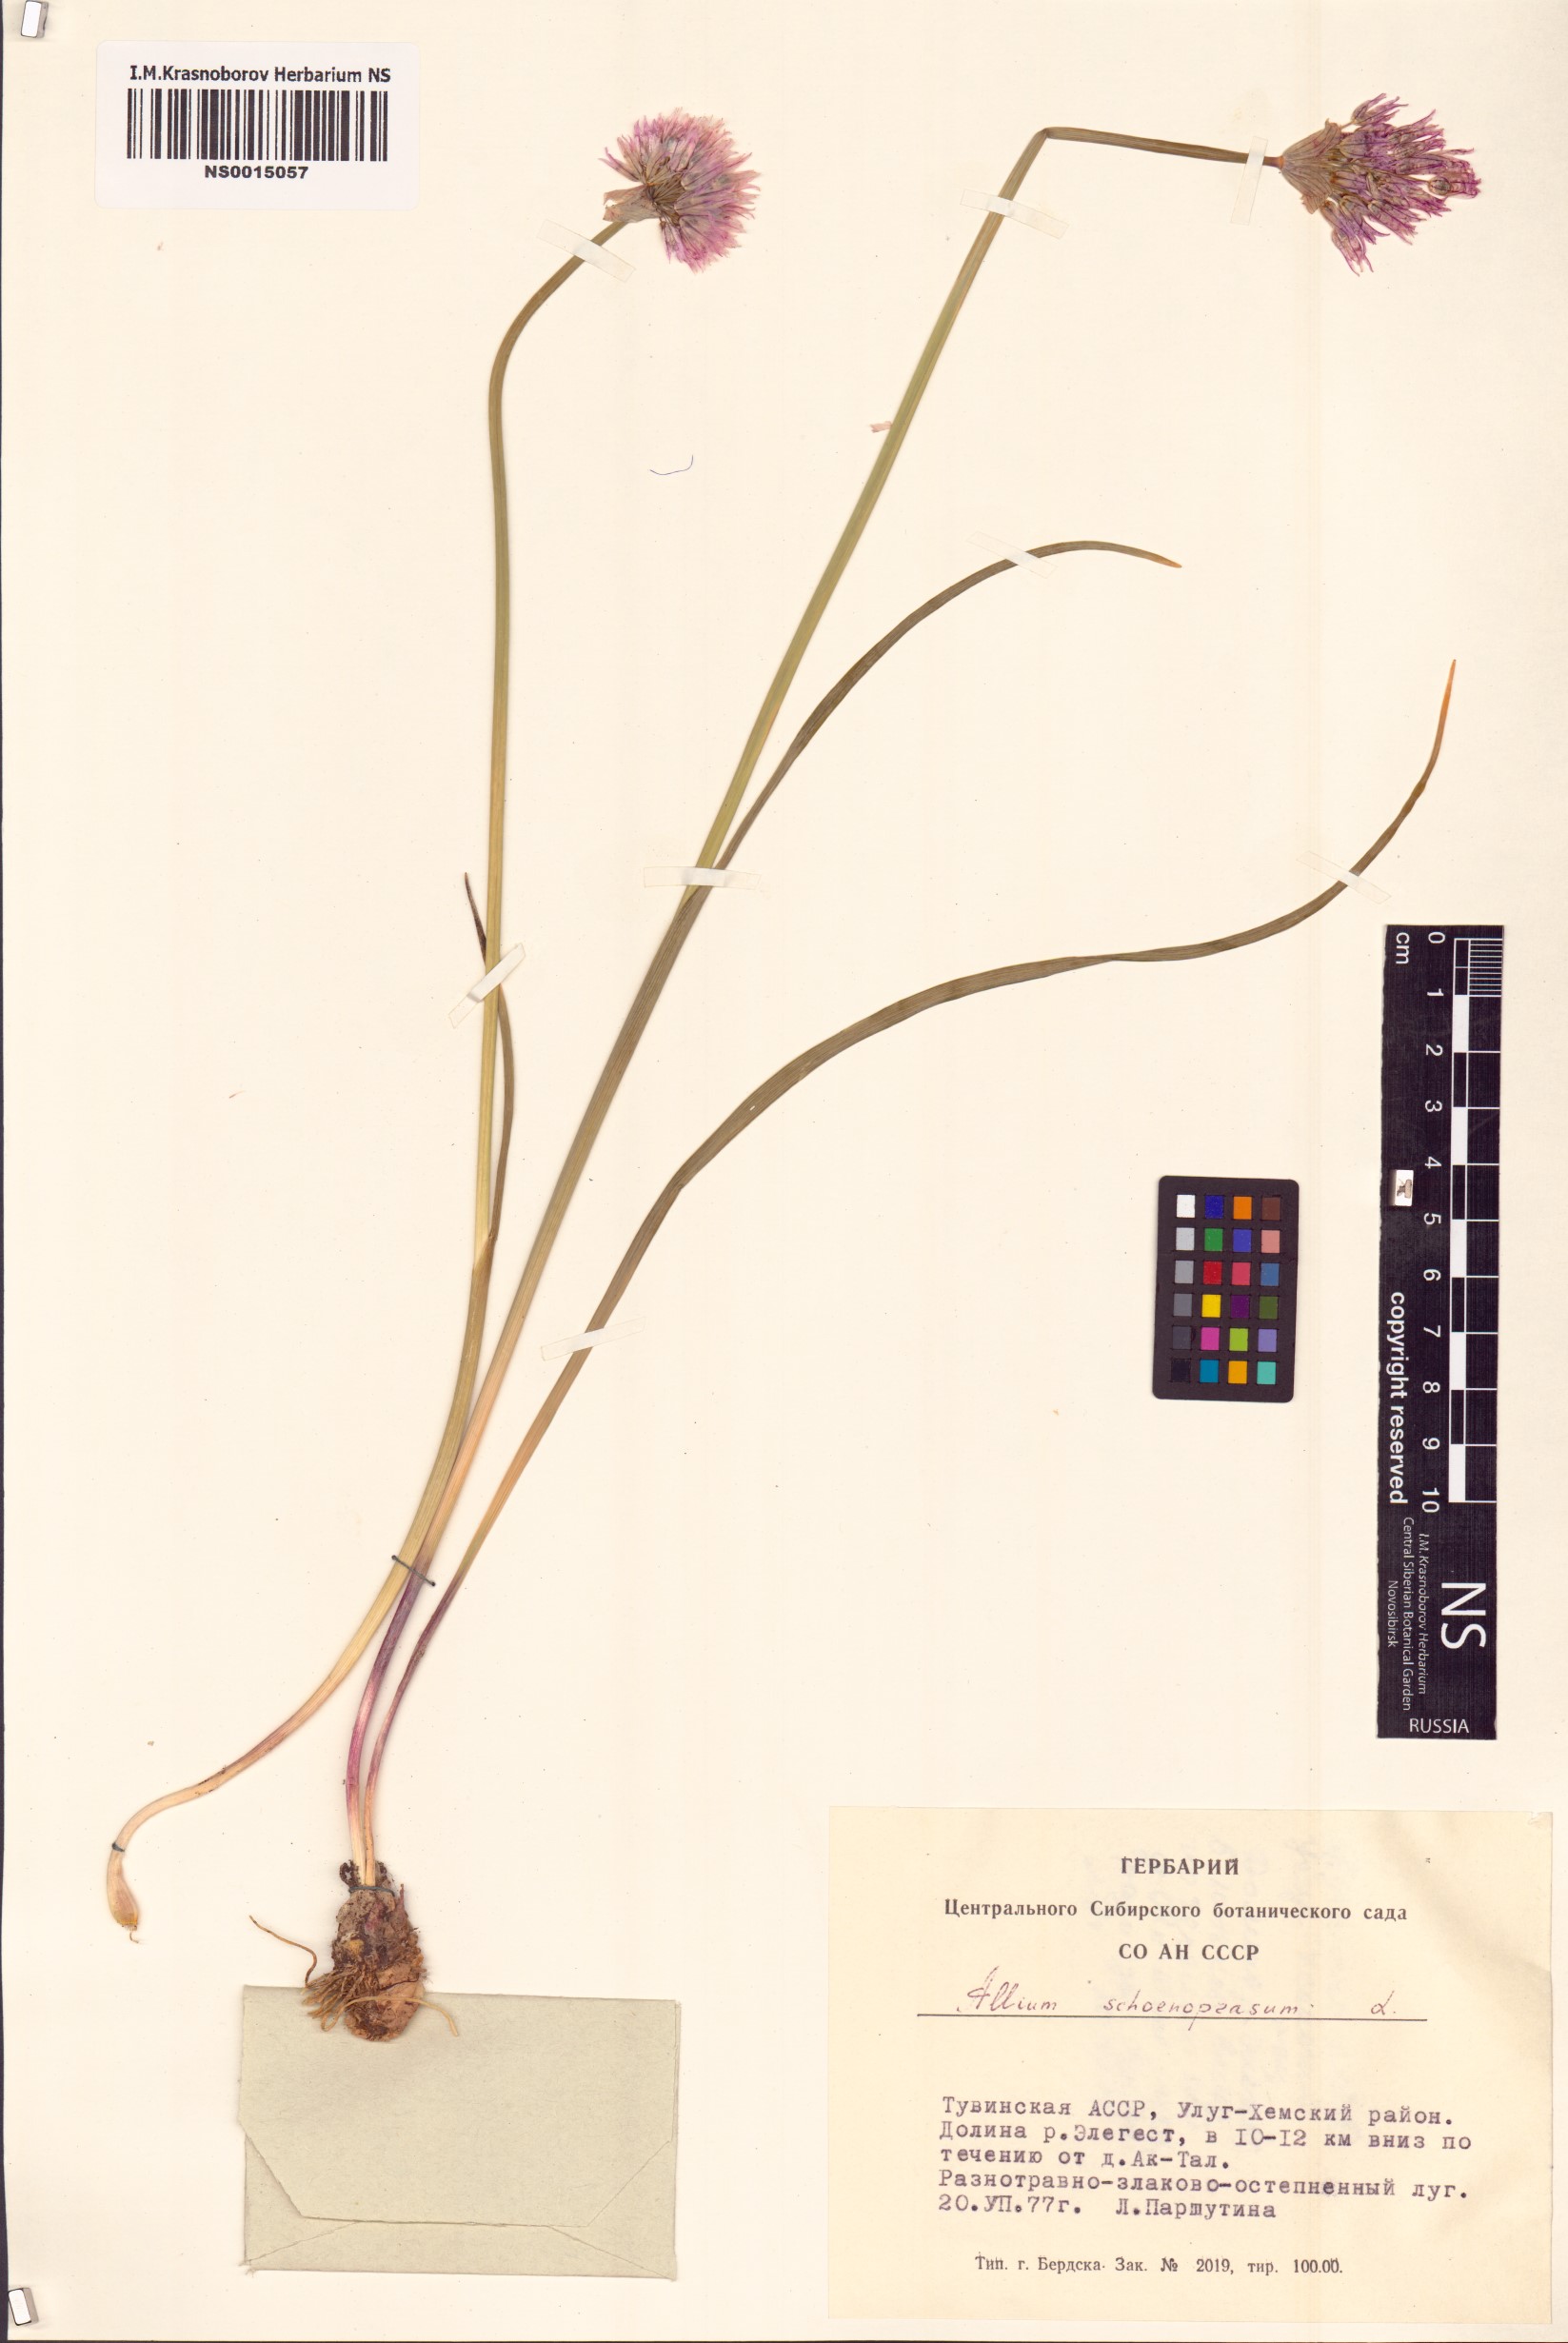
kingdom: Plantae
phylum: Tracheophyta
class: Liliopsida
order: Asparagales
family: Amaryllidaceae
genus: Allium
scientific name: Allium schoenoprasum
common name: Chives
